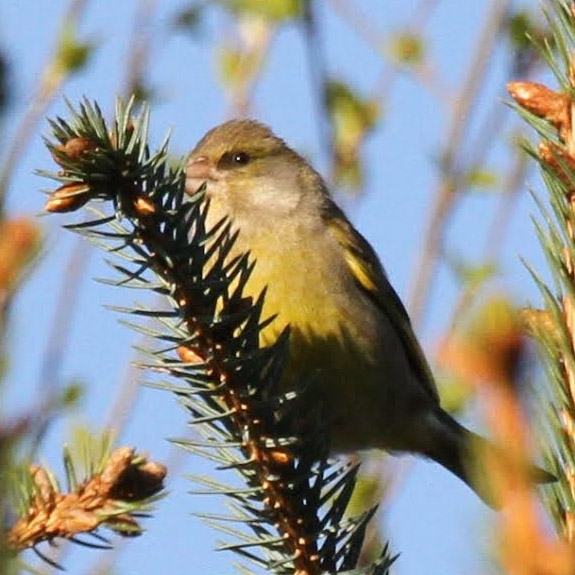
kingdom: Plantae
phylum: Tracheophyta
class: Liliopsida
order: Poales
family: Poaceae
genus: Chloris
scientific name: Chloris chloris
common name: Grønirisk
